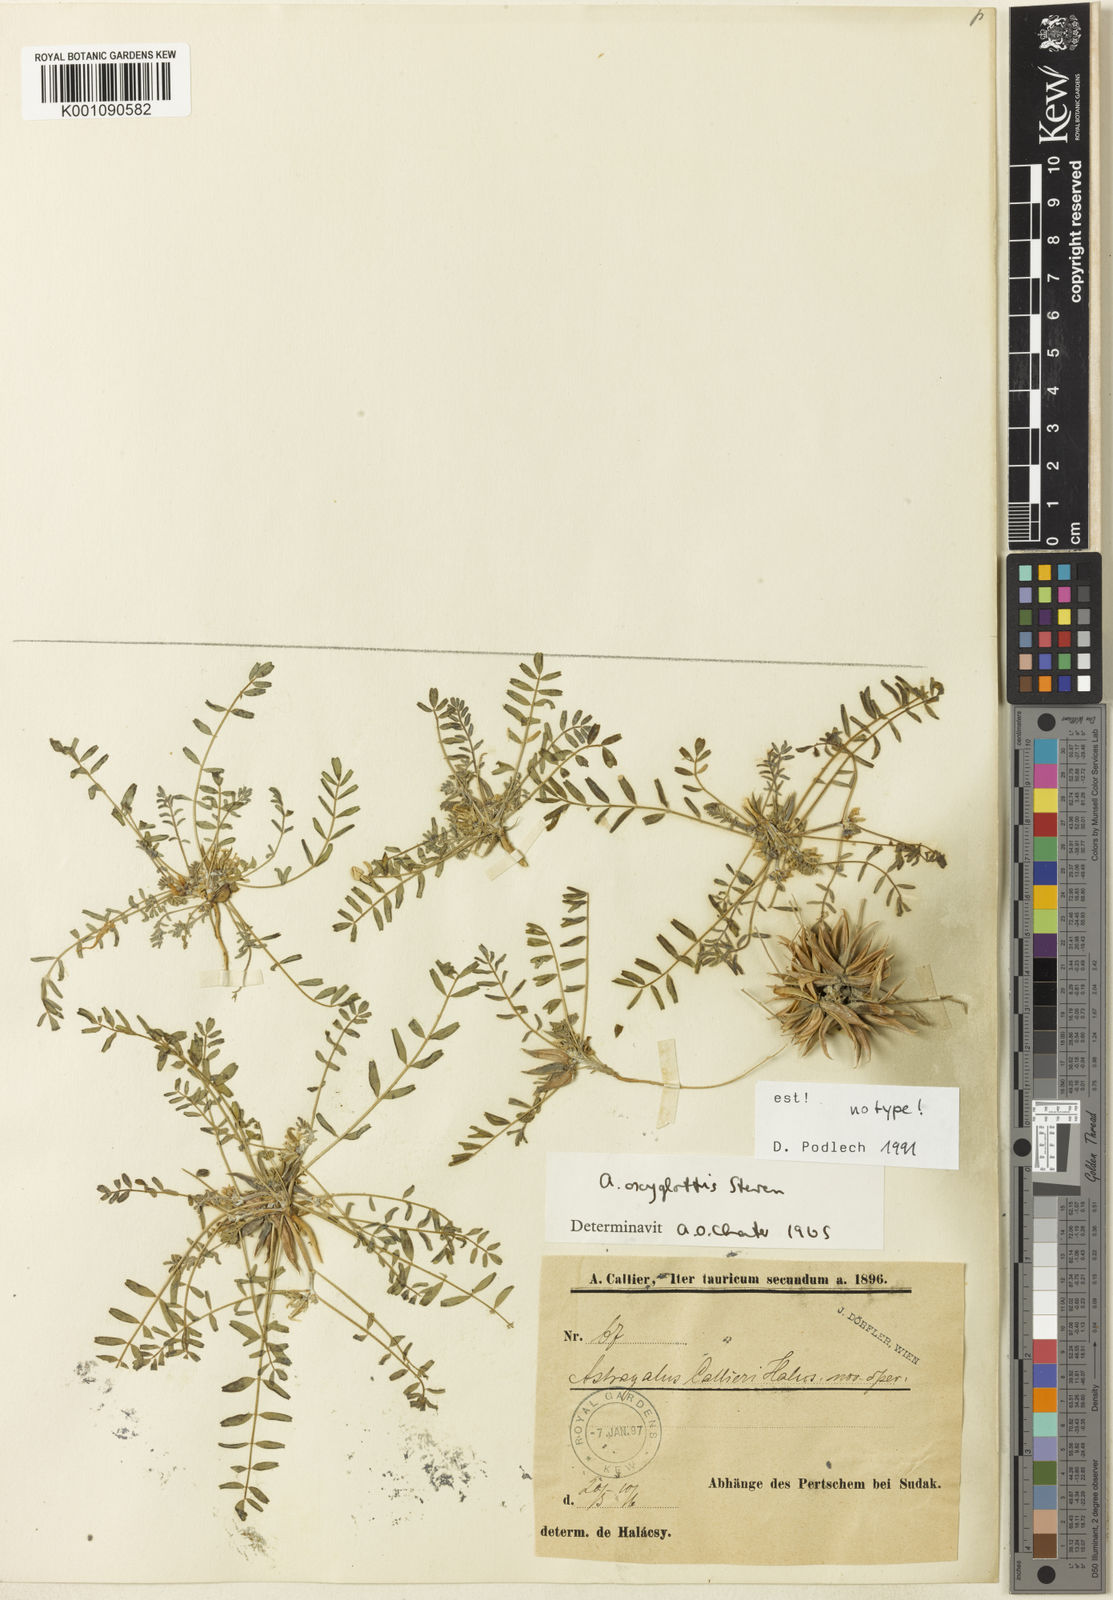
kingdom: Plantae
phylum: Tracheophyta
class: Magnoliopsida
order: Fabales
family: Fabaceae
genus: Astragalus
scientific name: Astragalus
